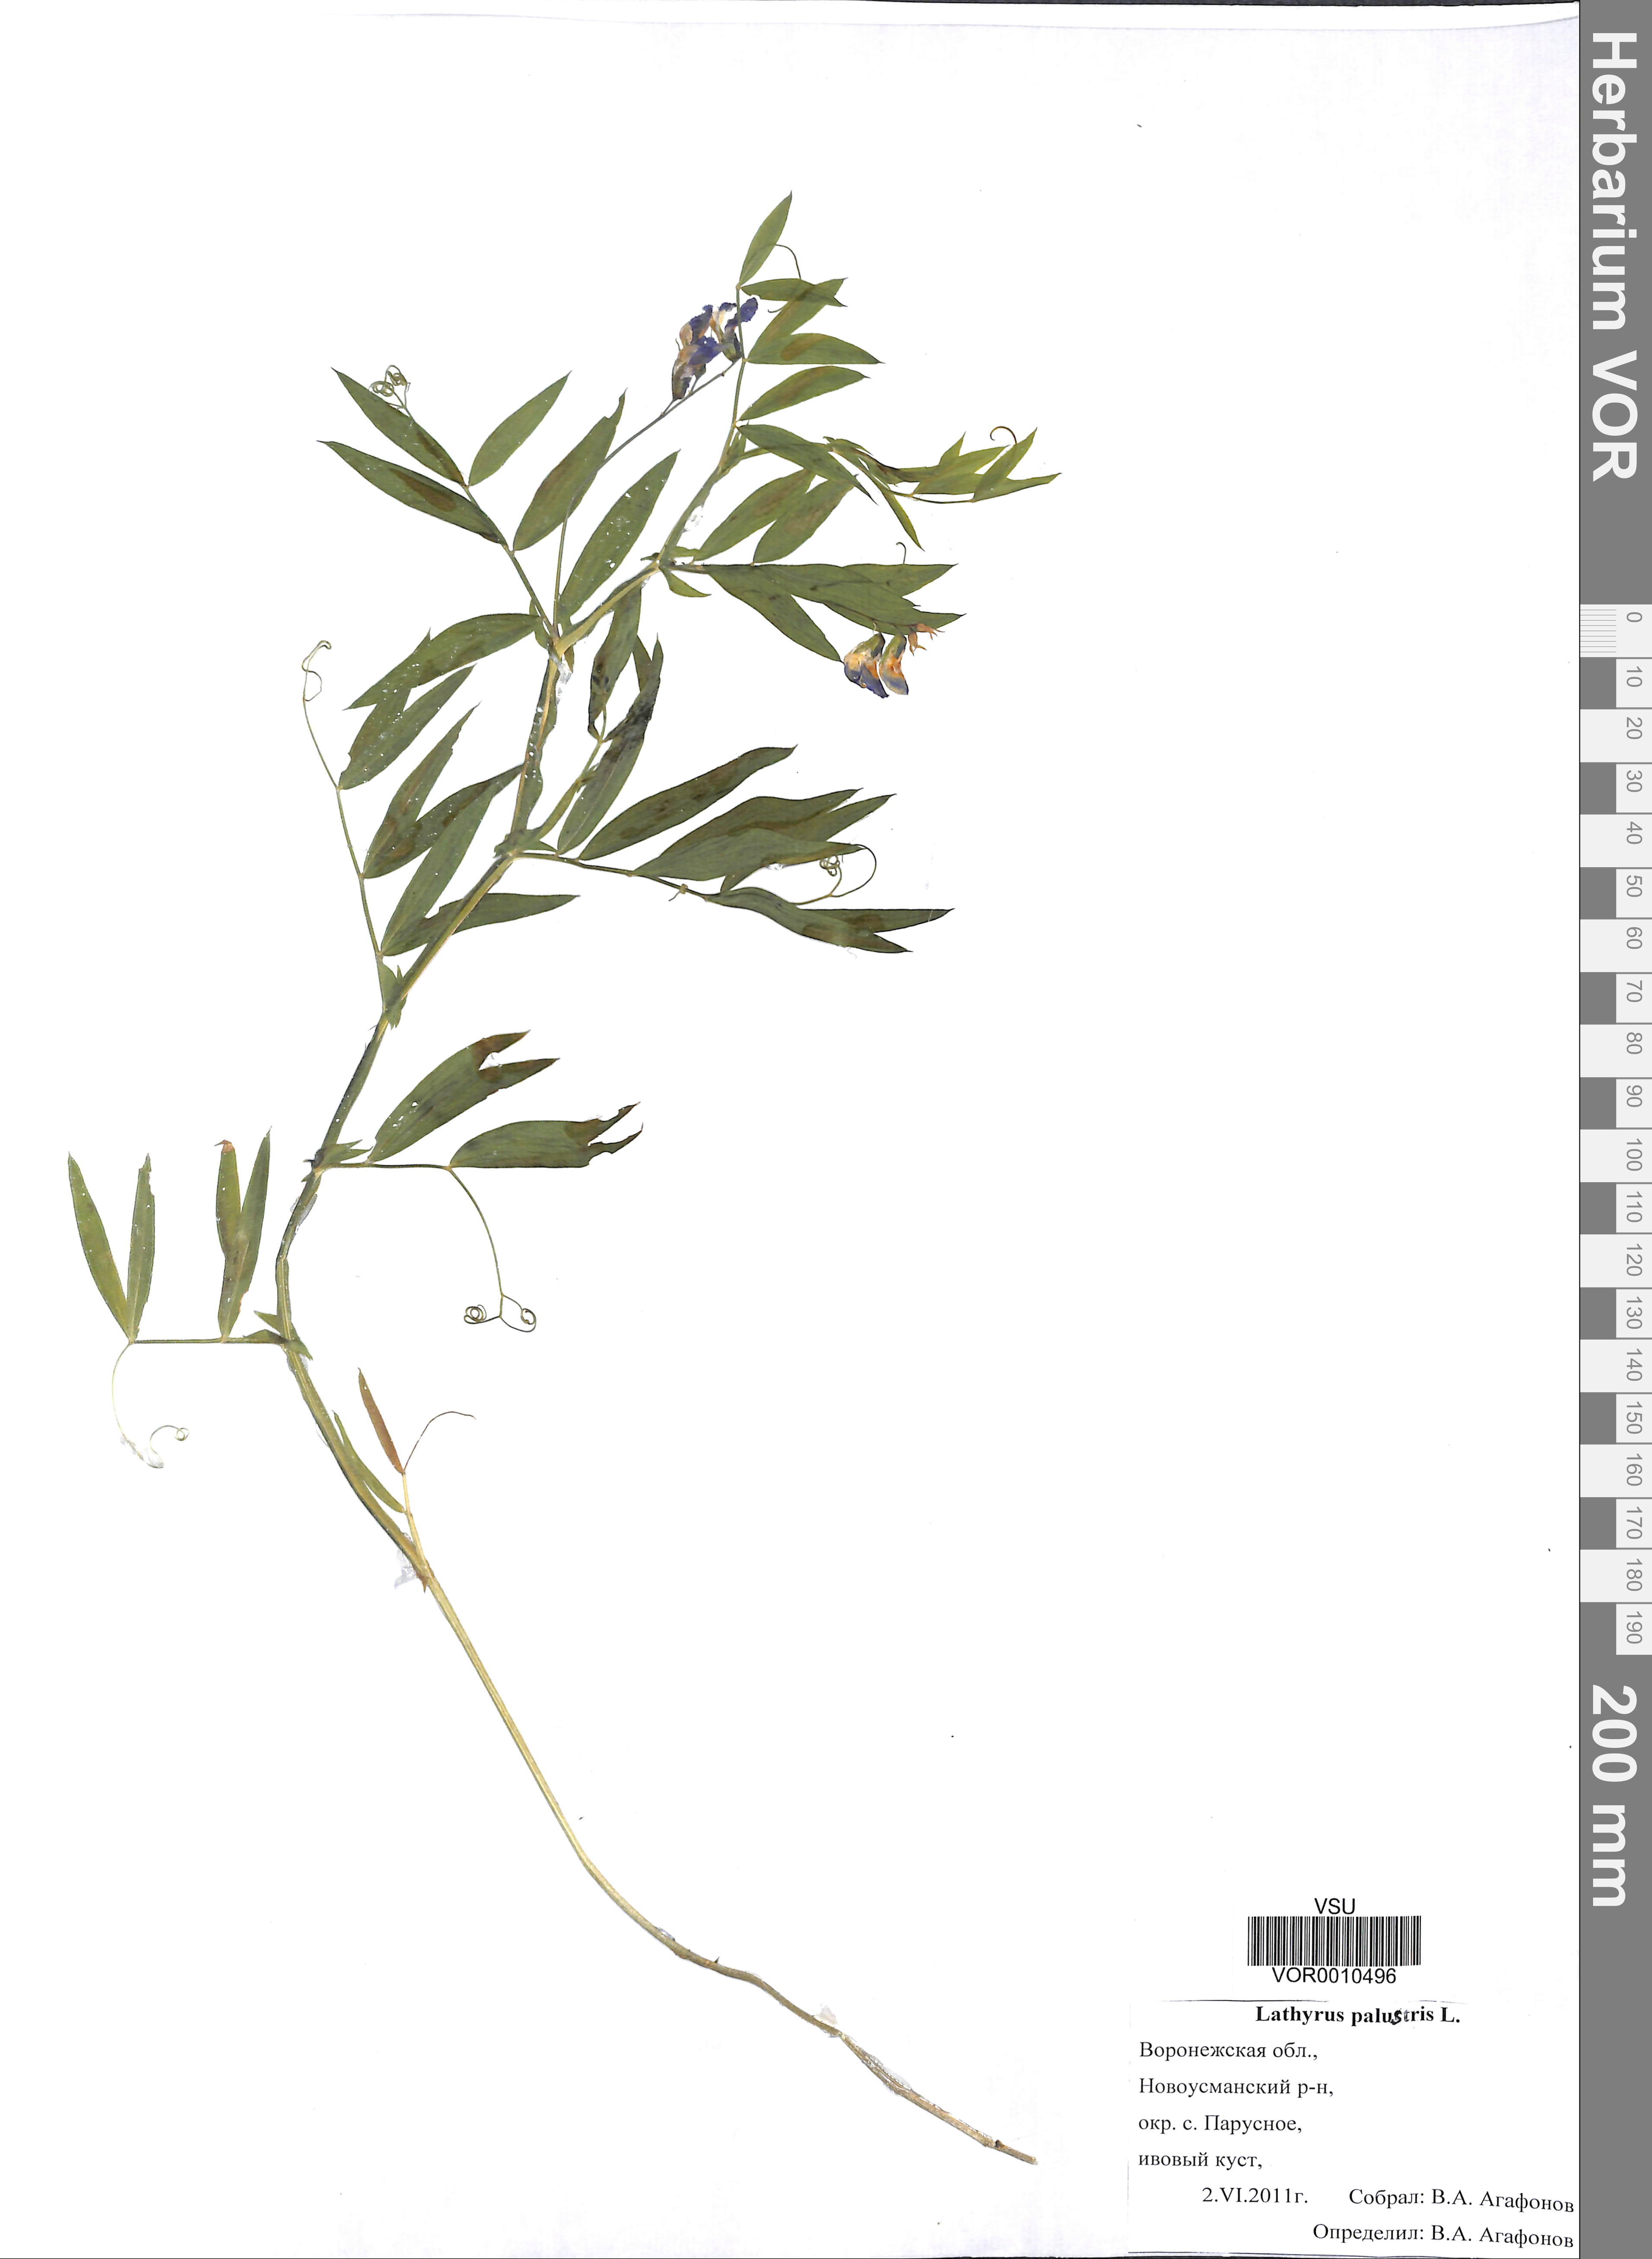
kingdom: Plantae
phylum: Tracheophyta
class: Magnoliopsida
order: Fabales
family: Fabaceae
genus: Lathyrus
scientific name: Lathyrus palustris
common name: Marsh pea
